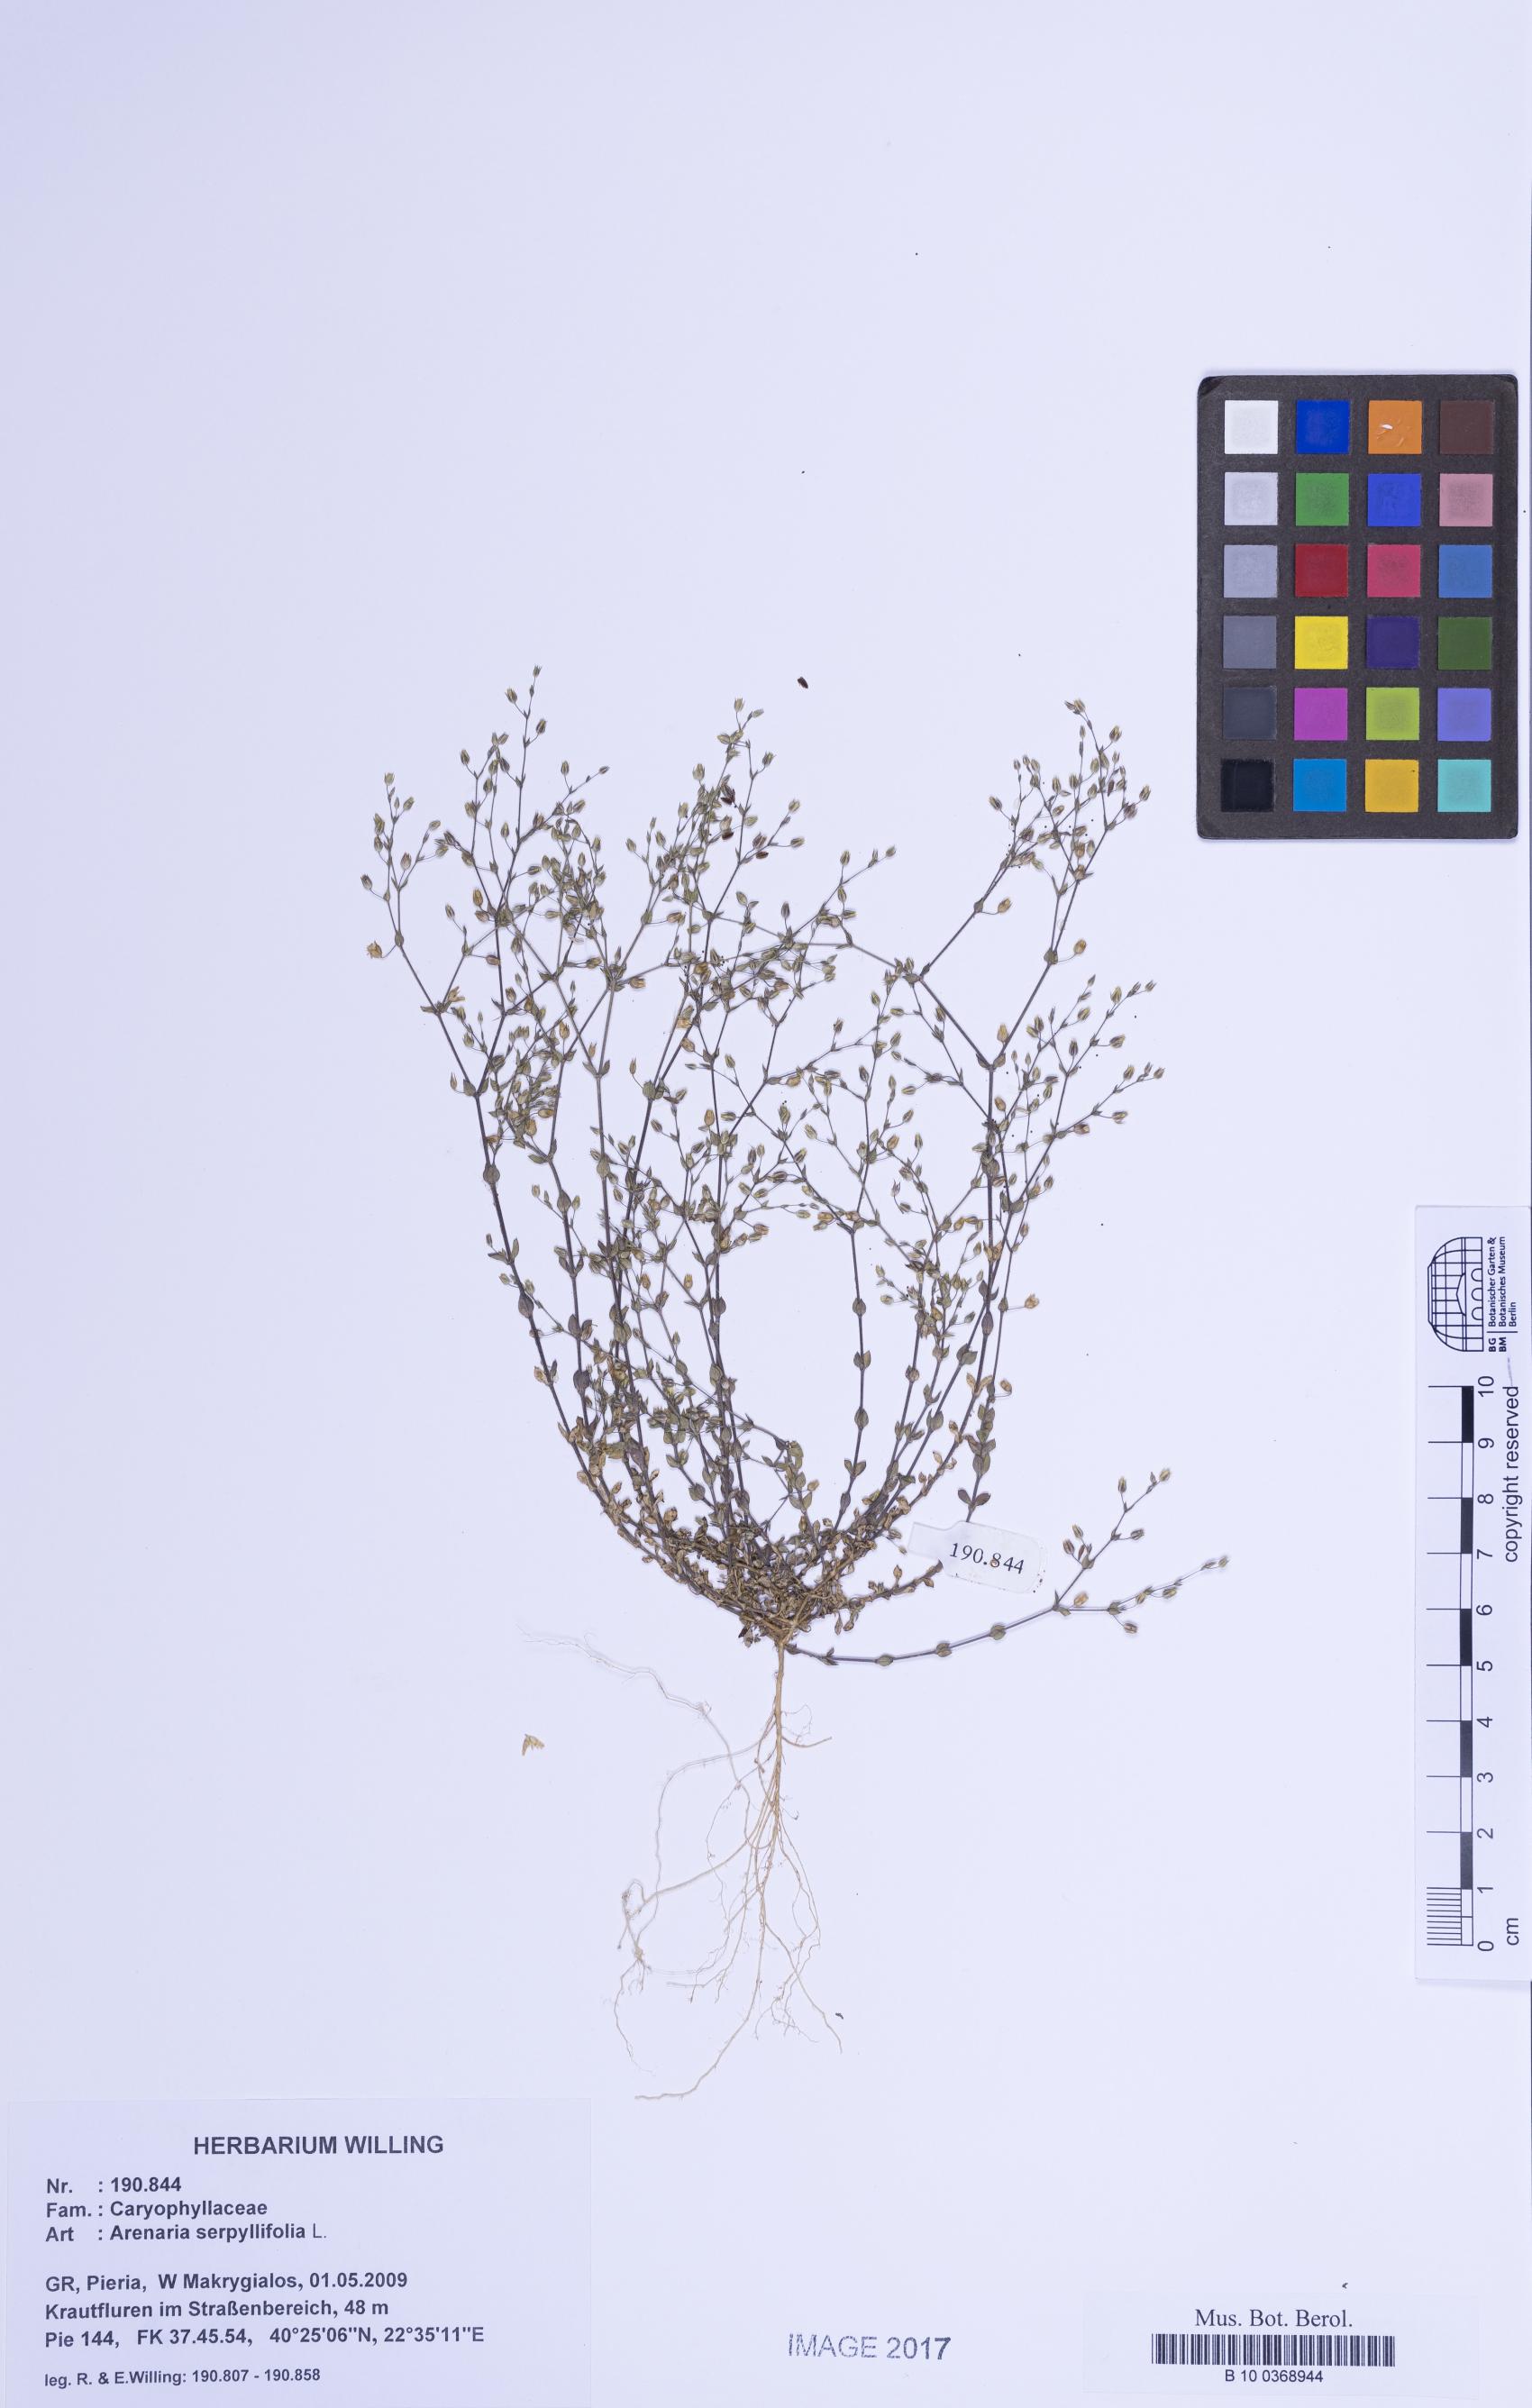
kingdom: Plantae
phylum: Tracheophyta
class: Magnoliopsida
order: Caryophyllales
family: Caryophyllaceae
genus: Arenaria
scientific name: Arenaria serpyllifolia
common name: Thyme-leaved sandwort
